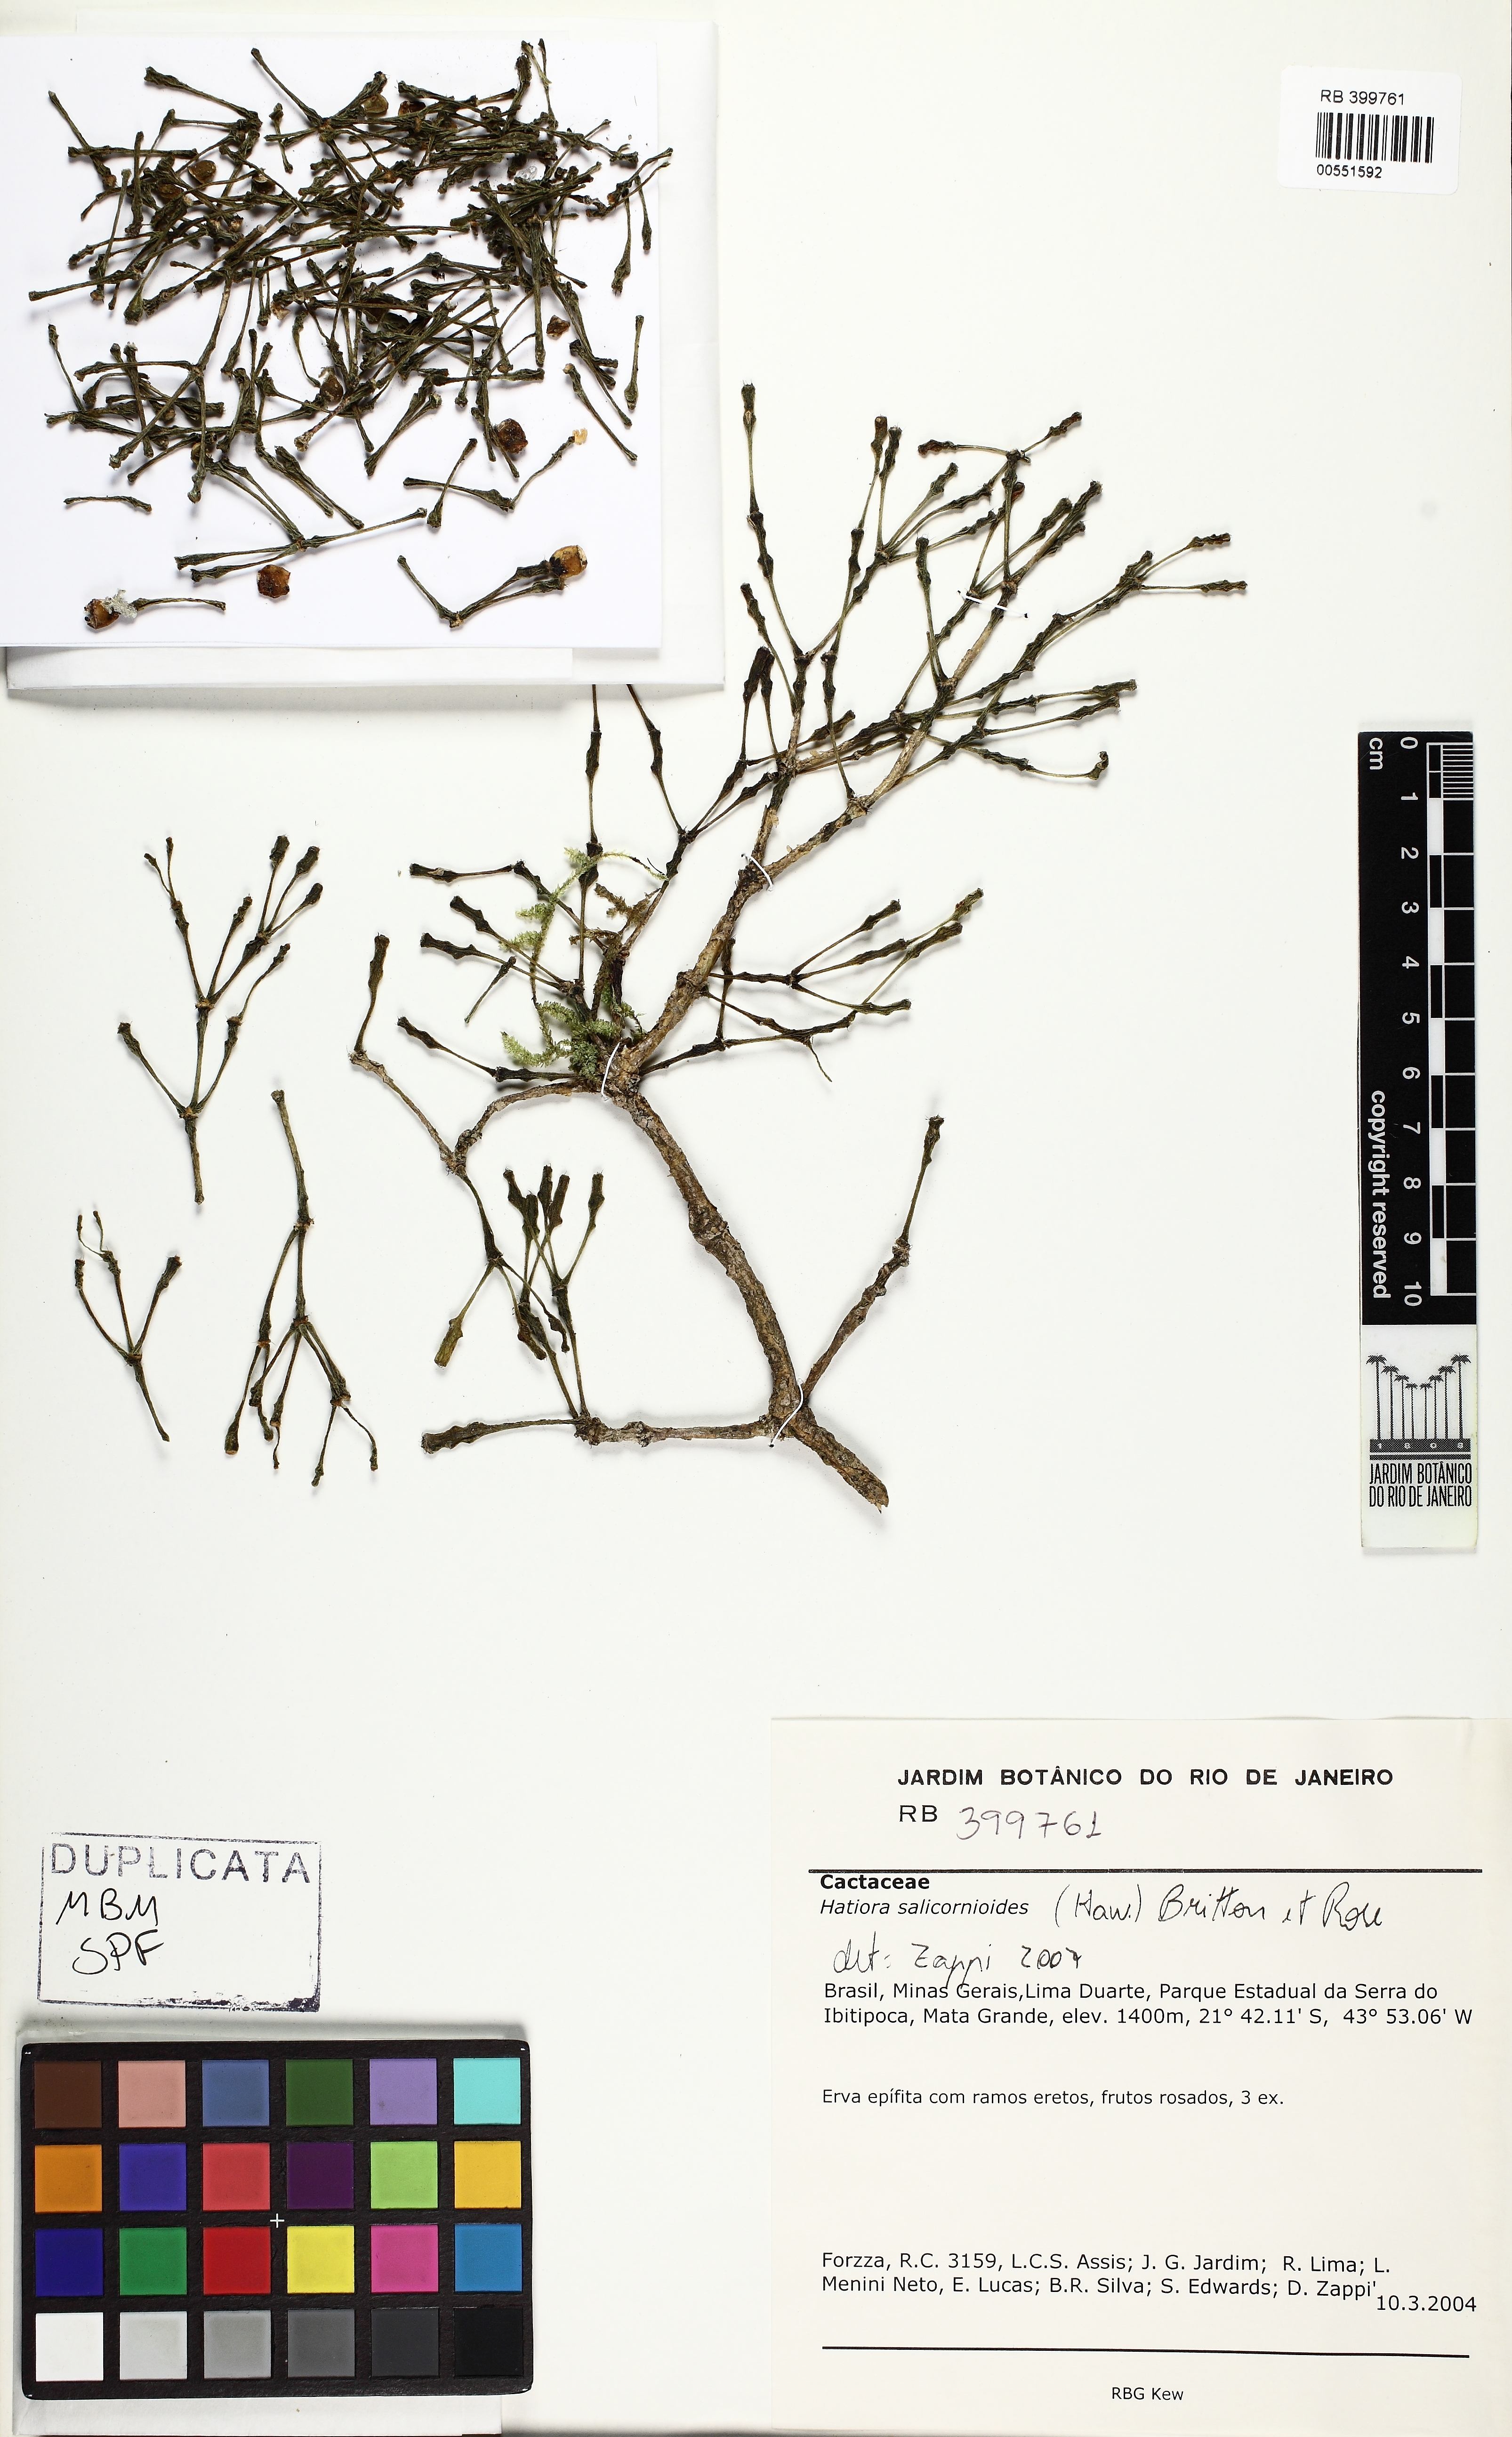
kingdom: Plantae
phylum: Tracheophyta
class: Magnoliopsida
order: Caryophyllales
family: Cactaceae
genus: Hatiora
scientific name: Hatiora salicornioides
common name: Dancing-bones
